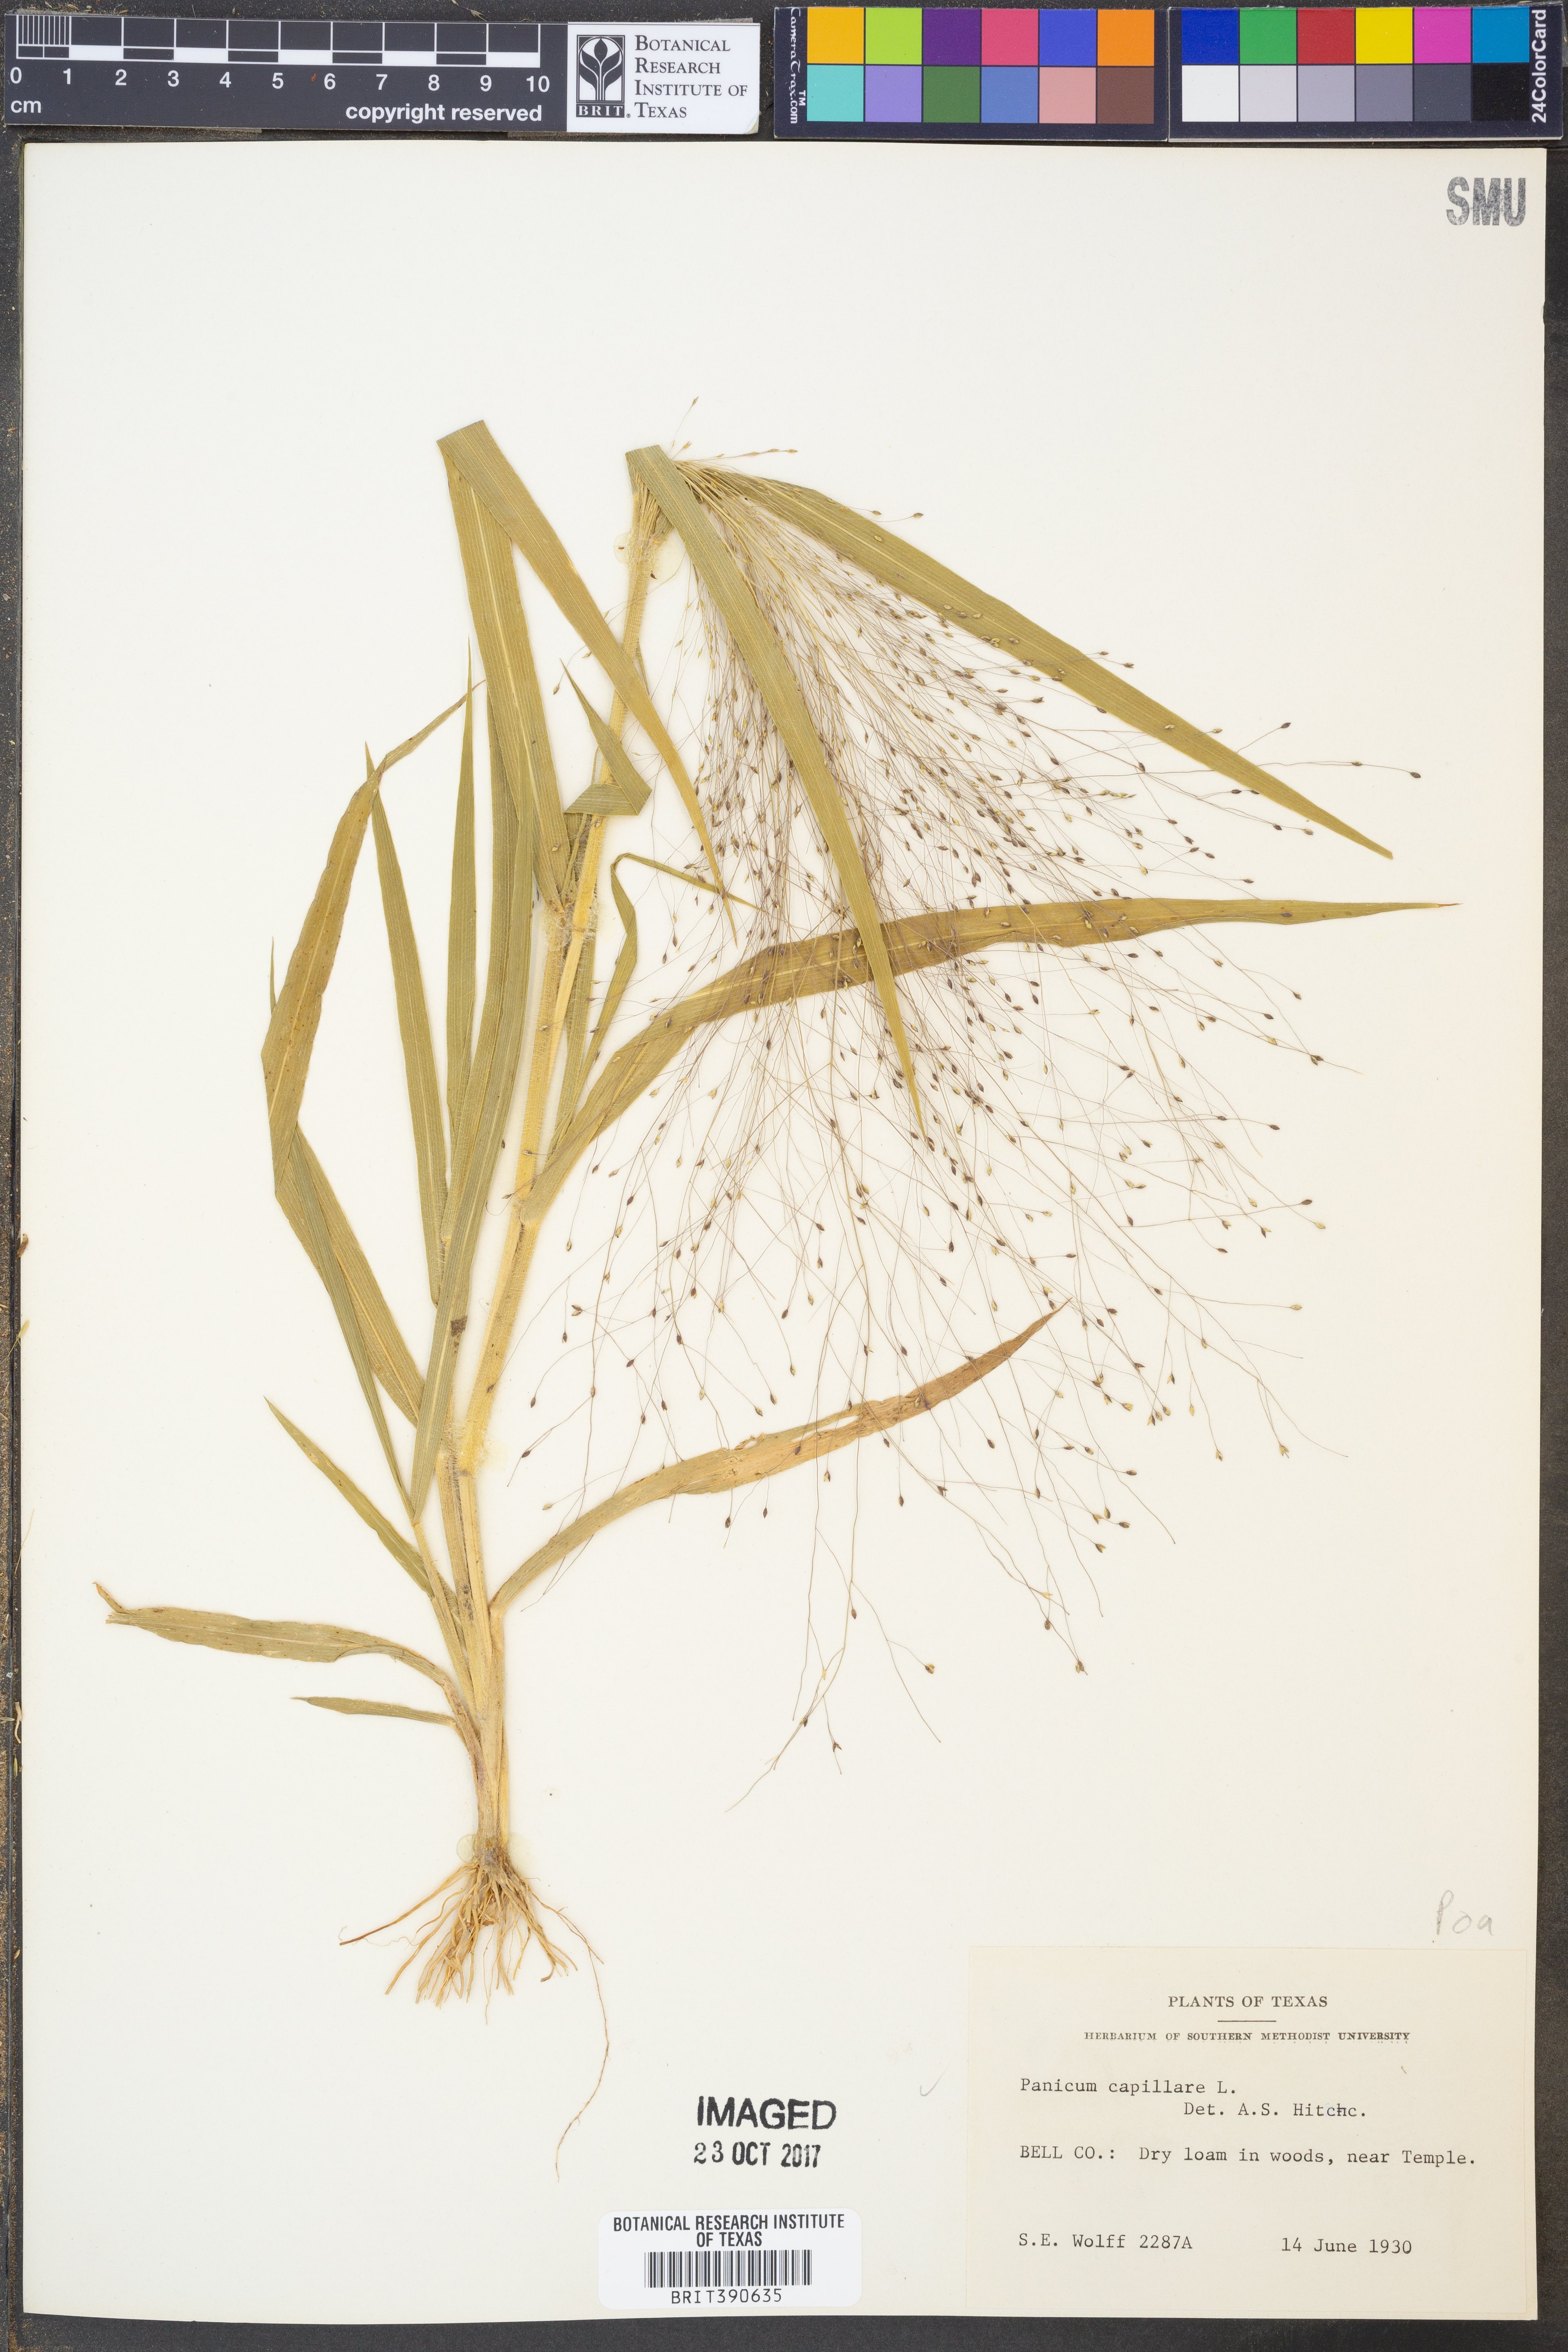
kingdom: Plantae
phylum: Tracheophyta
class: Liliopsida
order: Poales
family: Poaceae
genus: Panicum
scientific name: Panicum capillare
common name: Witch-grass
